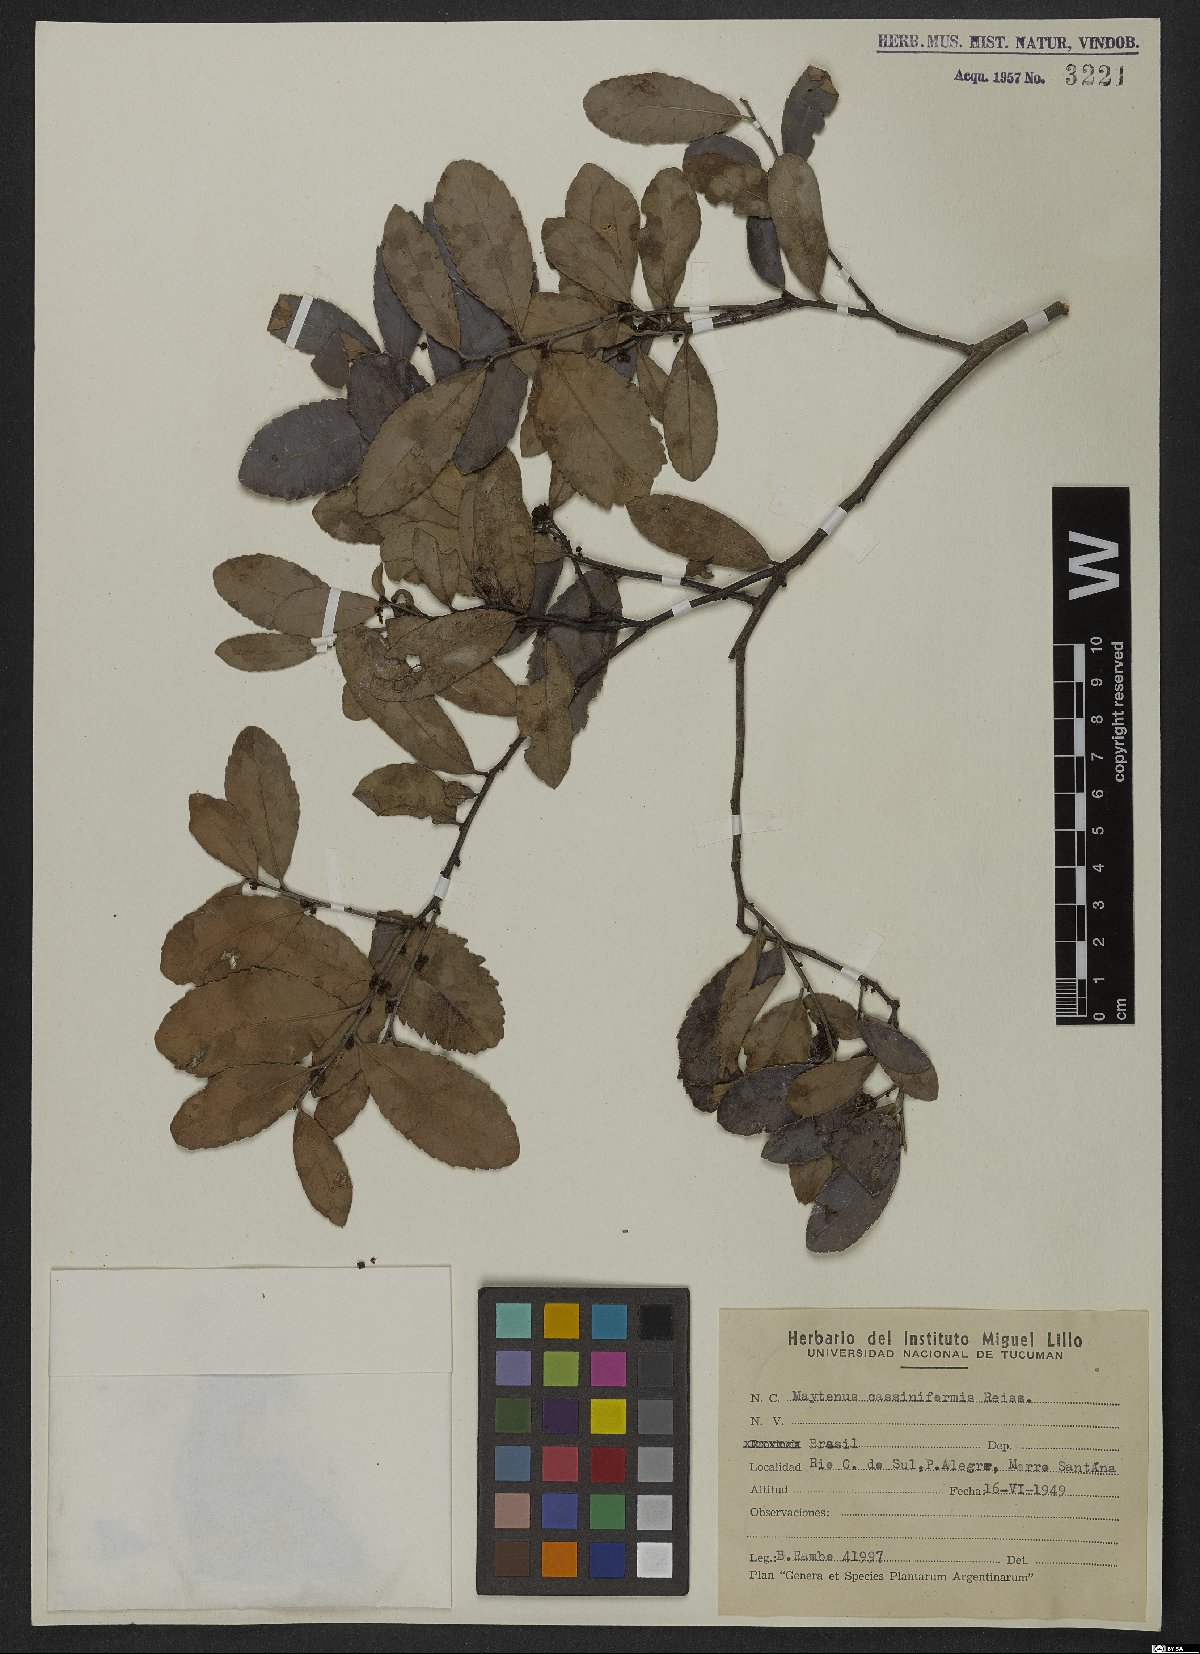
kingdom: Plantae
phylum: Tracheophyta
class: Magnoliopsida
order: Celastrales
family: Celastraceae
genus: Monteverdia
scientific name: Monteverdia cassineformis
